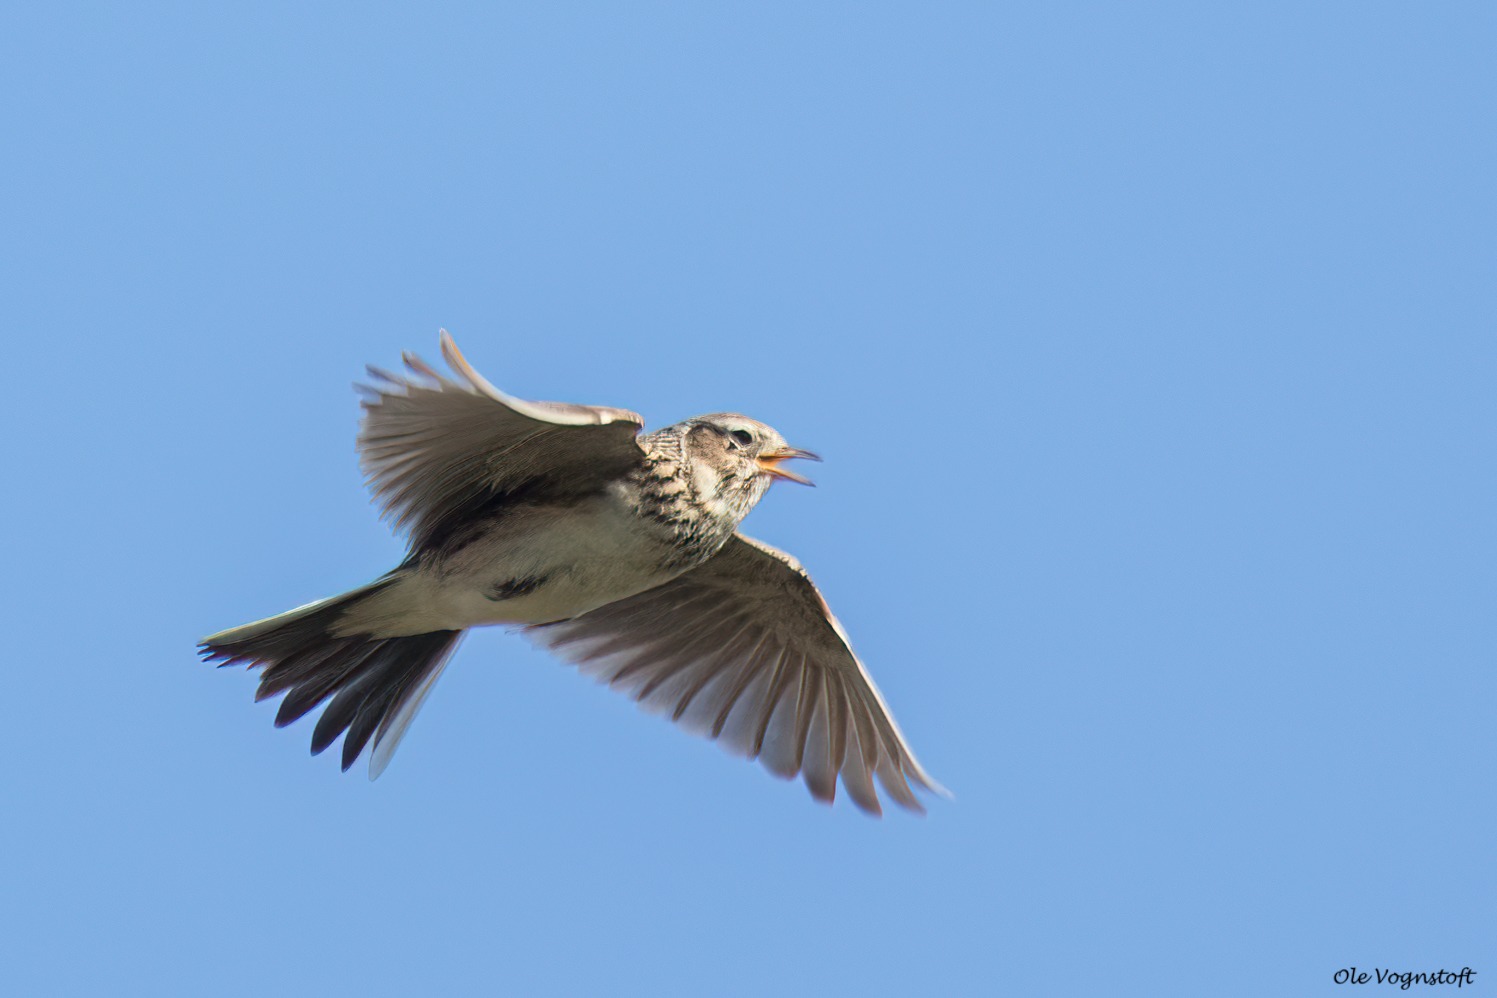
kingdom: Animalia
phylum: Chordata
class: Aves
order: Passeriformes
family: Alaudidae
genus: Alauda
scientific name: Alauda arvensis
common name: Sanglærke
